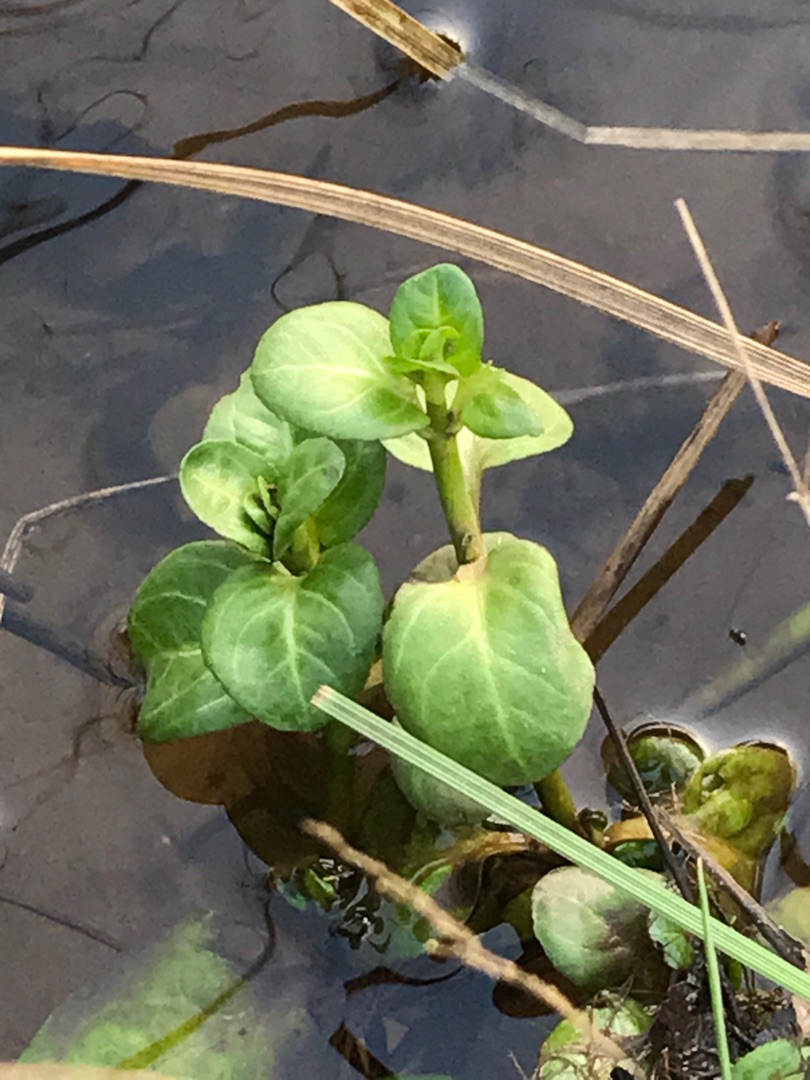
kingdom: Plantae
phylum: Tracheophyta
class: Magnoliopsida
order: Lamiales
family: Plantaginaceae
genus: Veronica
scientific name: Veronica beccabunga
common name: Tykbladet ærenpris
